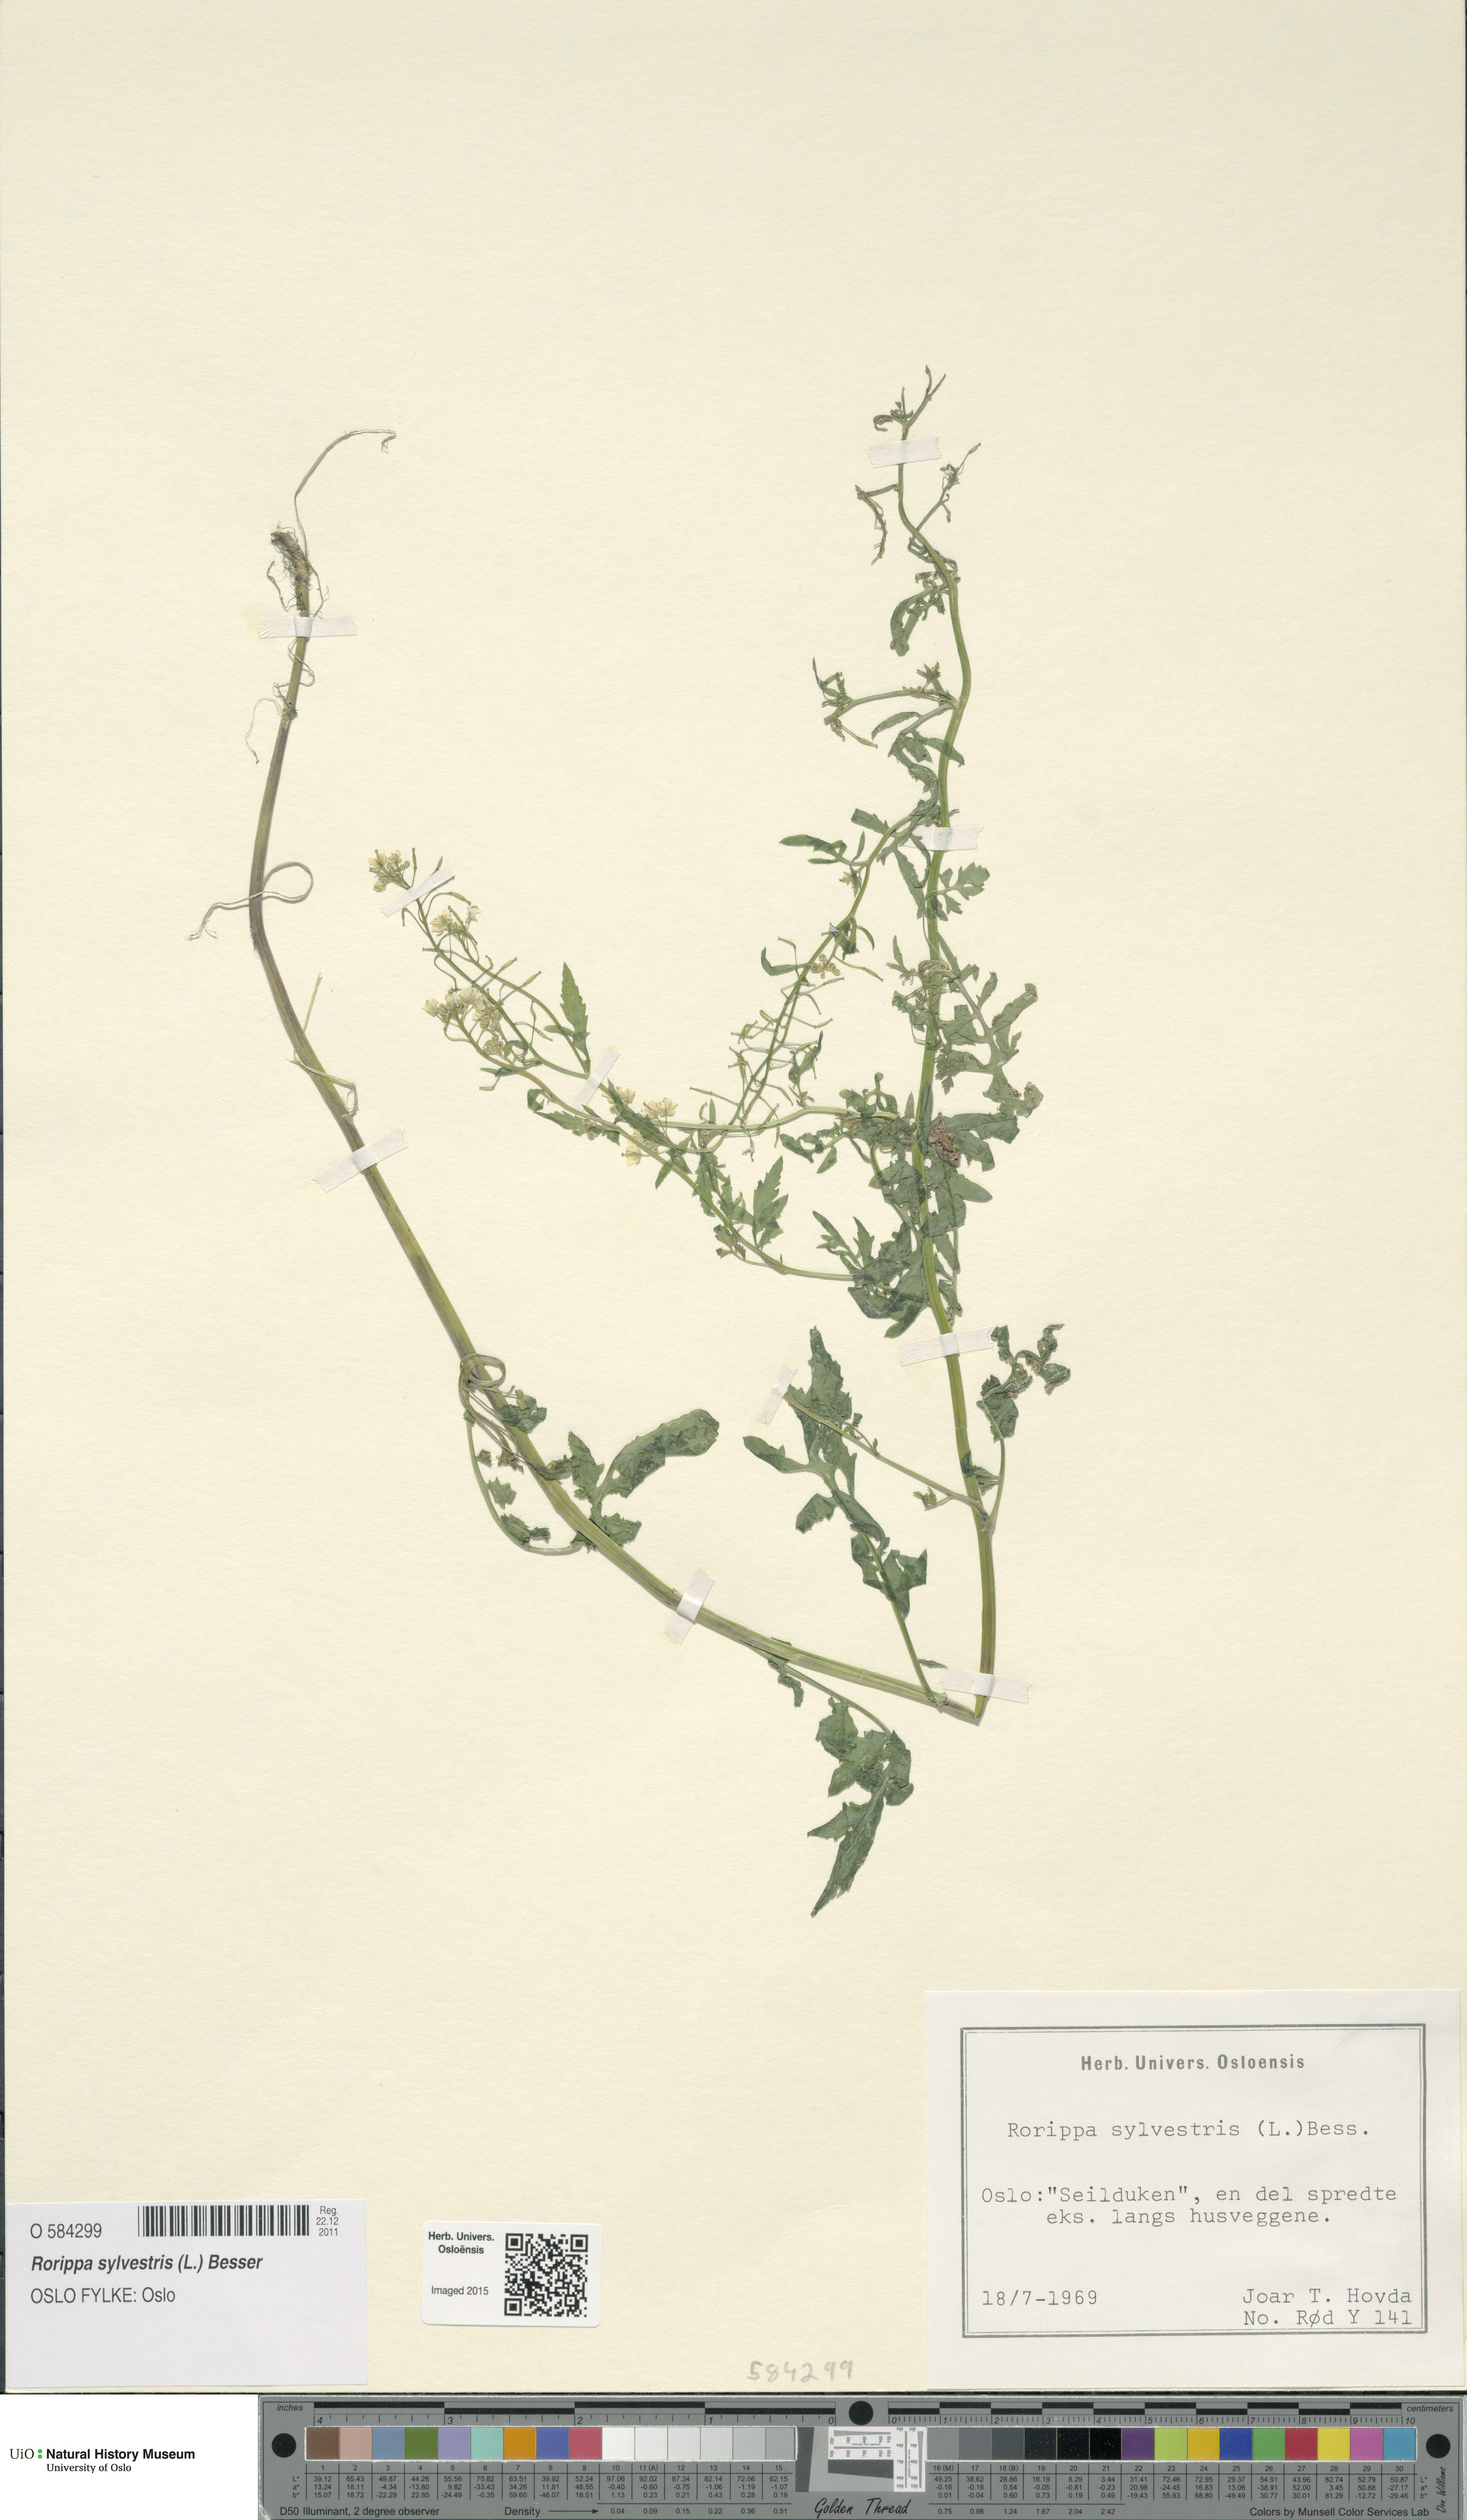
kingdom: Plantae
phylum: Tracheophyta
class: Magnoliopsida
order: Brassicales
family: Brassicaceae
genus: Rorippa
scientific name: Rorippa sylvestris
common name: Creeping yellowcress
